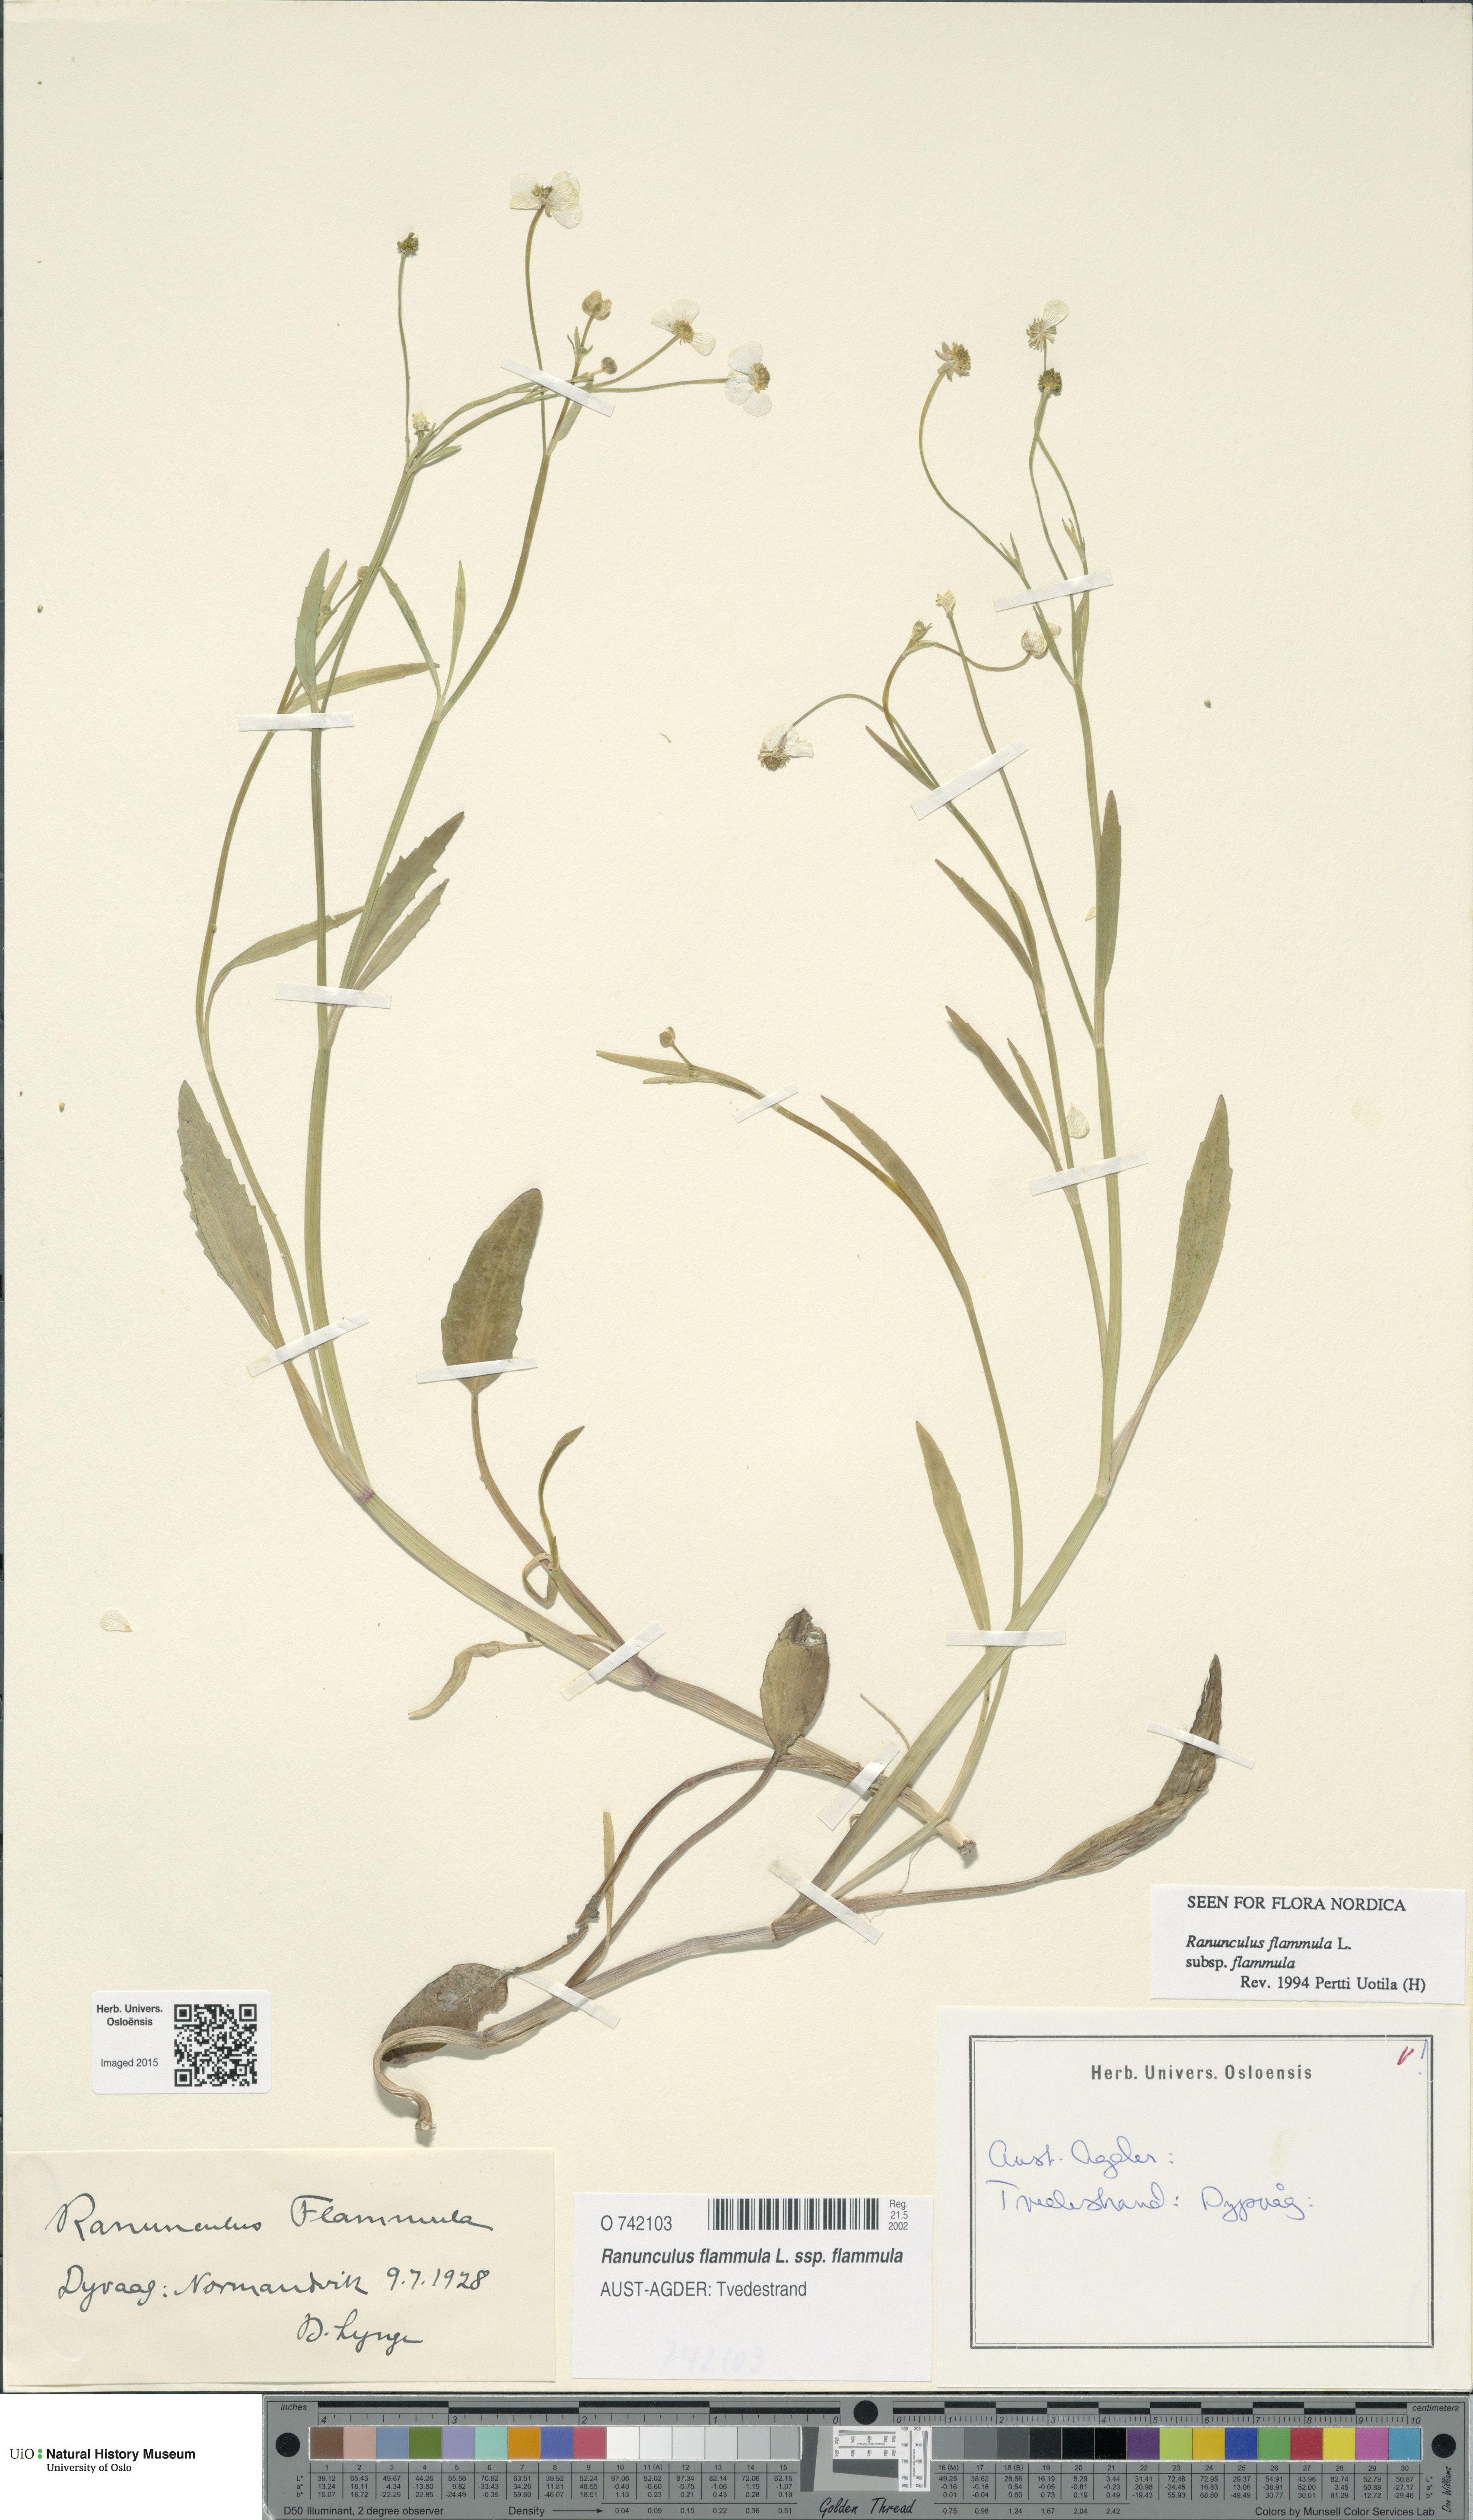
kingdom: Plantae
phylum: Tracheophyta
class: Magnoliopsida
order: Ranunculales
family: Ranunculaceae
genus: Ranunculus
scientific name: Ranunculus flammula
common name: Lesser spearwort
